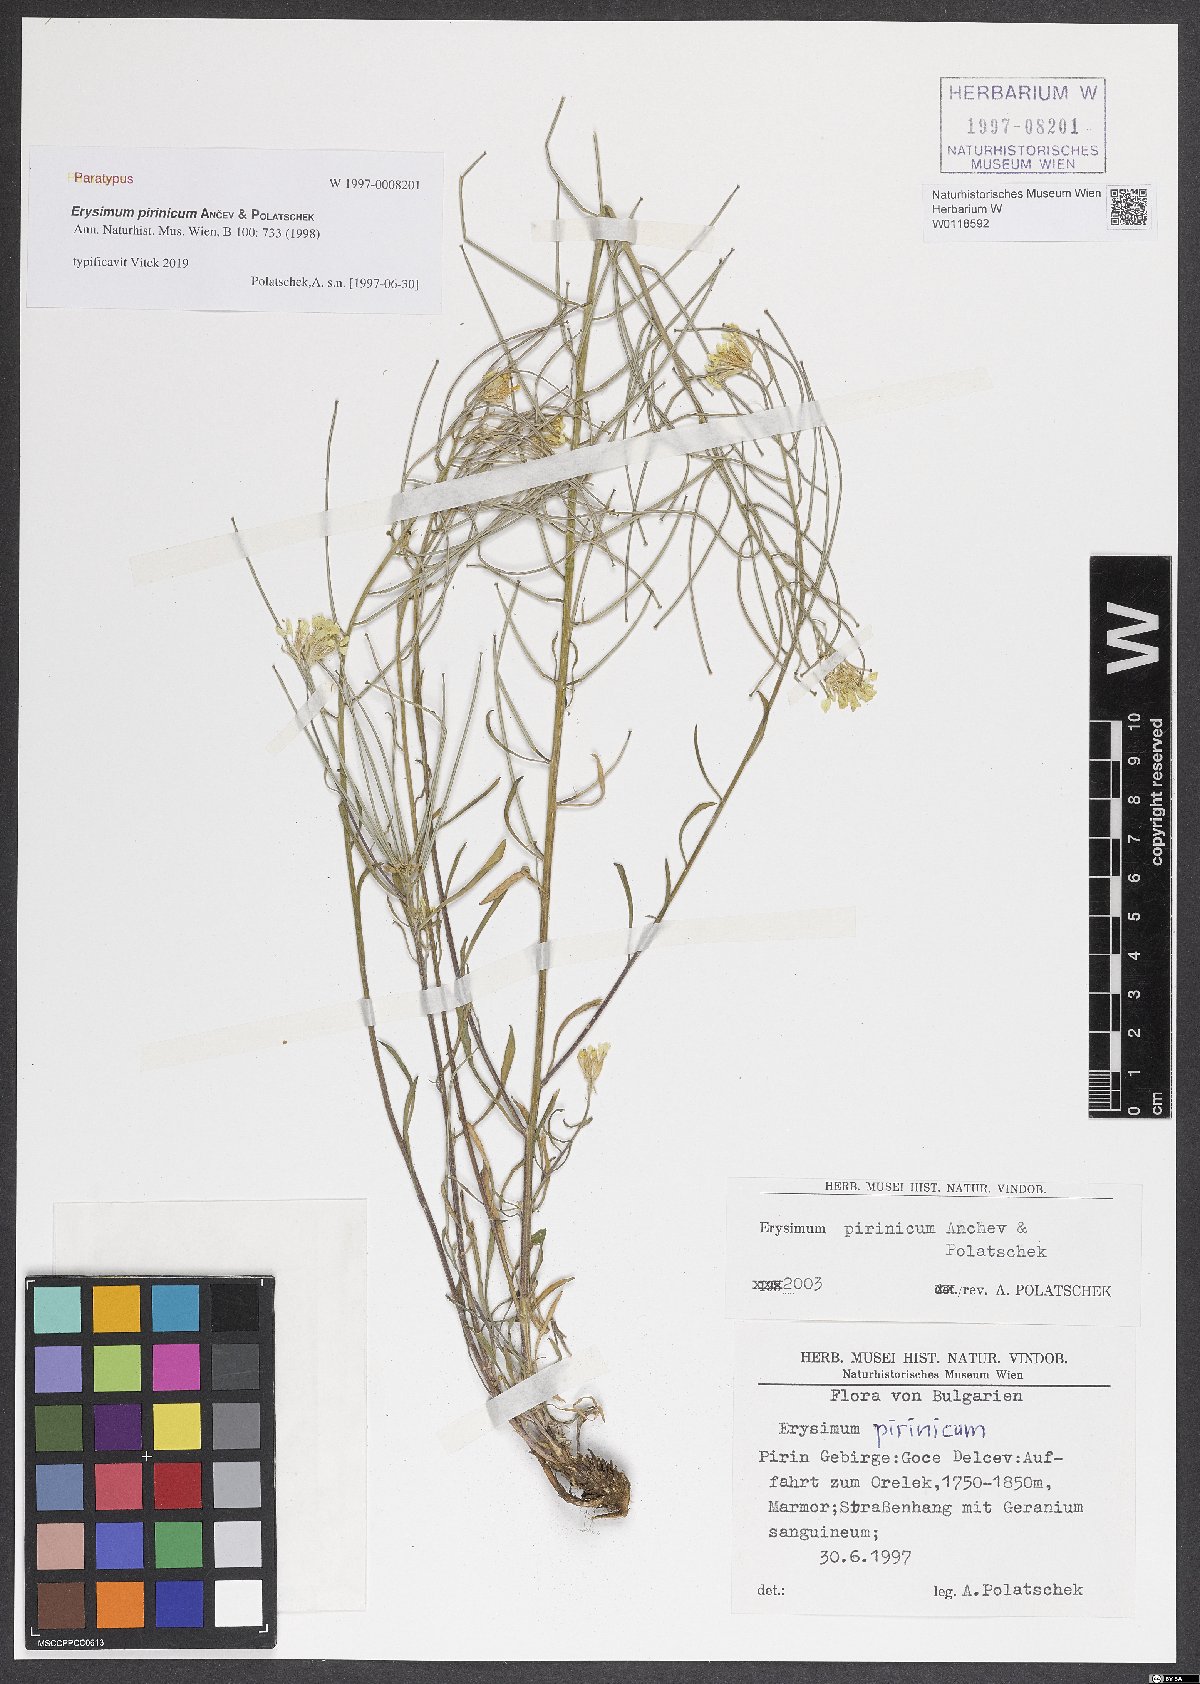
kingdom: Plantae
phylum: Tracheophyta
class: Magnoliopsida
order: Brassicales
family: Brassicaceae
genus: Erysimum
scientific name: Erysimum pirinicum
